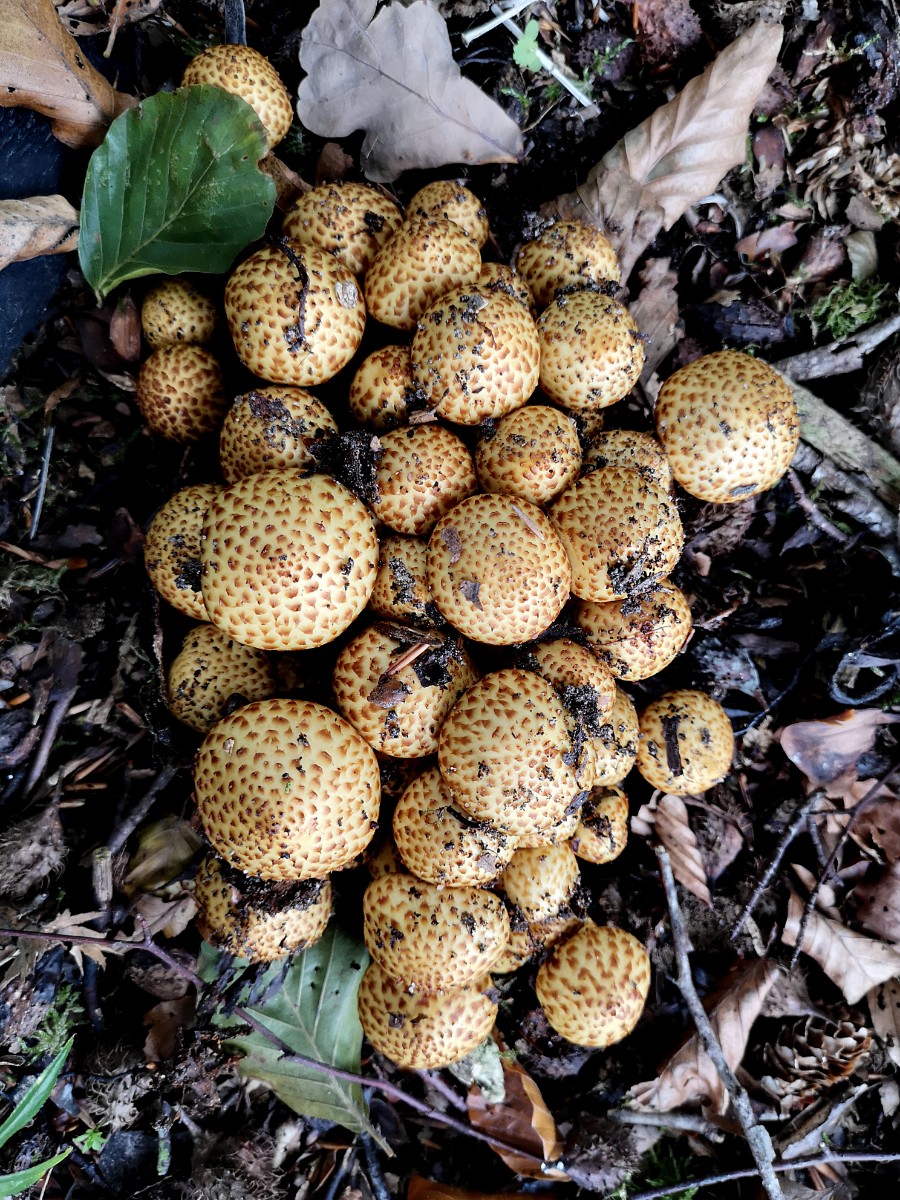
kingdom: Fungi
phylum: Basidiomycota
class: Agaricomycetes
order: Agaricales
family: Strophariaceae
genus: Pholiota
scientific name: Pholiota jahnii
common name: slimet skælhat
